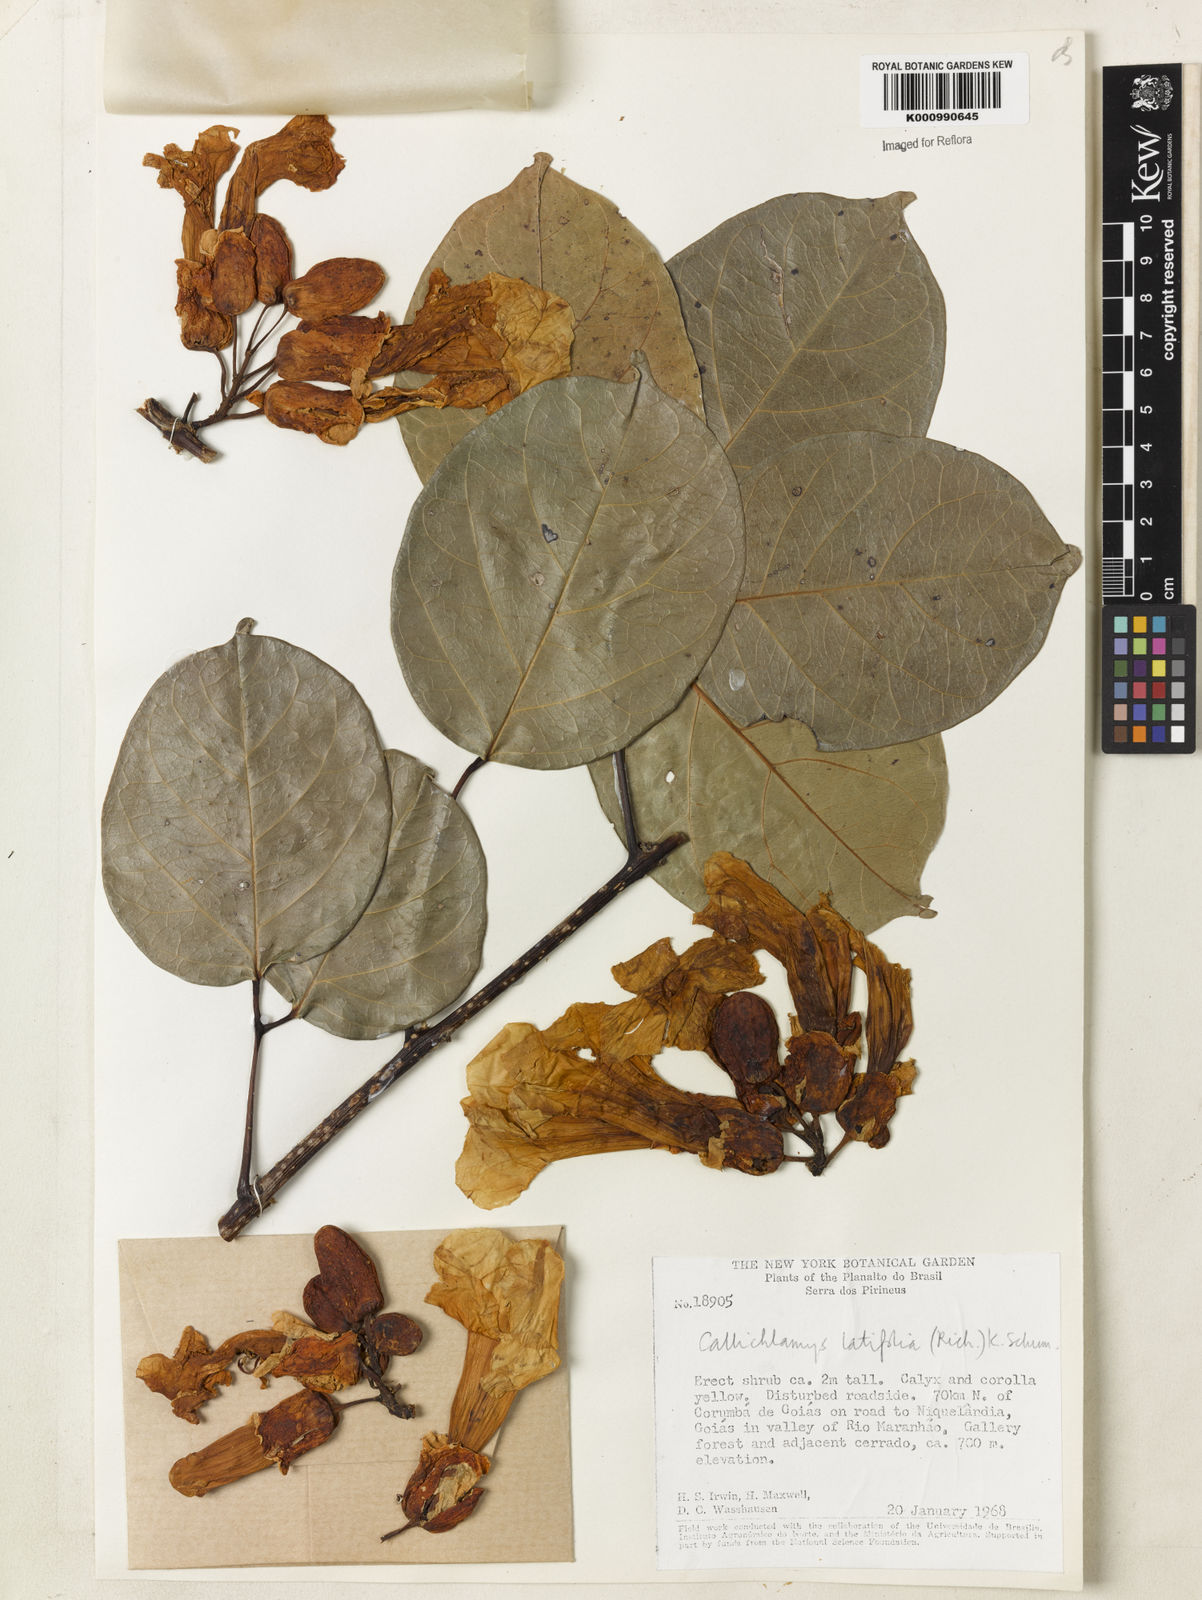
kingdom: Plantae
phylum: Tracheophyta
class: Magnoliopsida
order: Lamiales
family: Bignoniaceae
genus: Callichlamys
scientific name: Callichlamys latifolia
